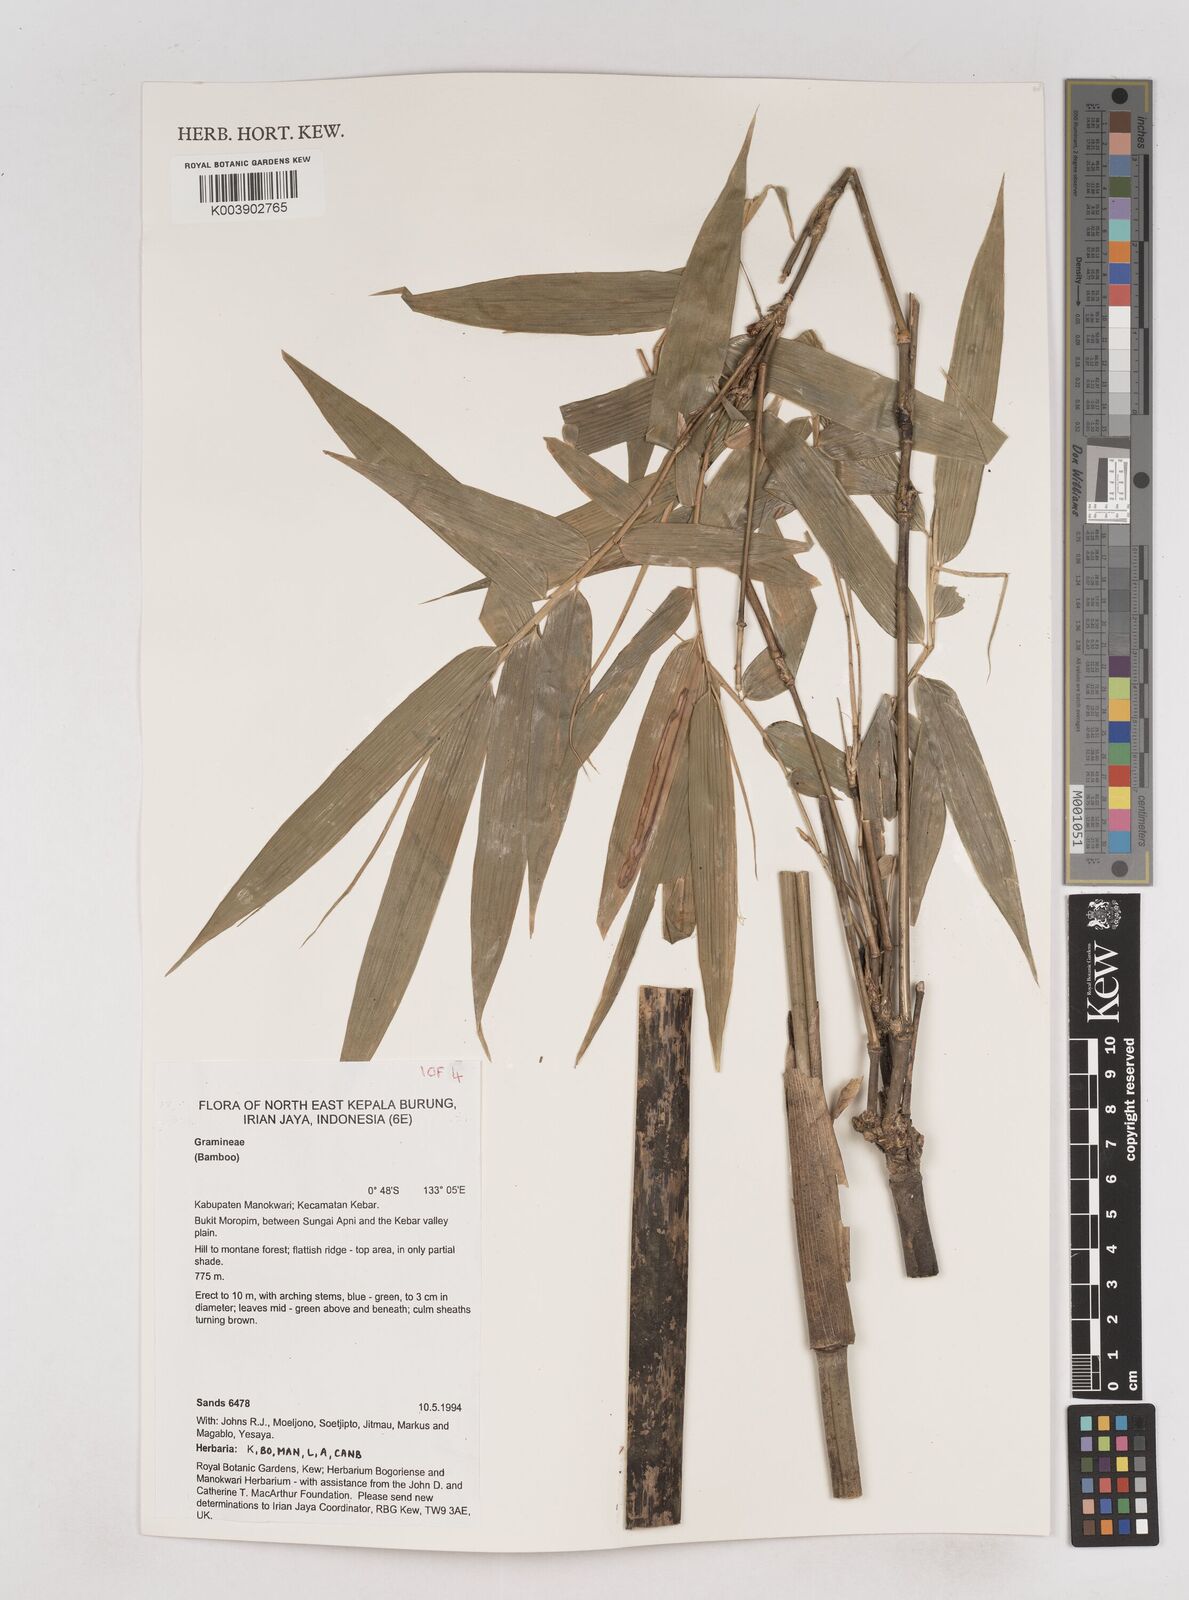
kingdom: Plantae
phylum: Tracheophyta
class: Liliopsida
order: Poales
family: Poaceae
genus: Schizostachyum
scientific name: Schizostachyum
